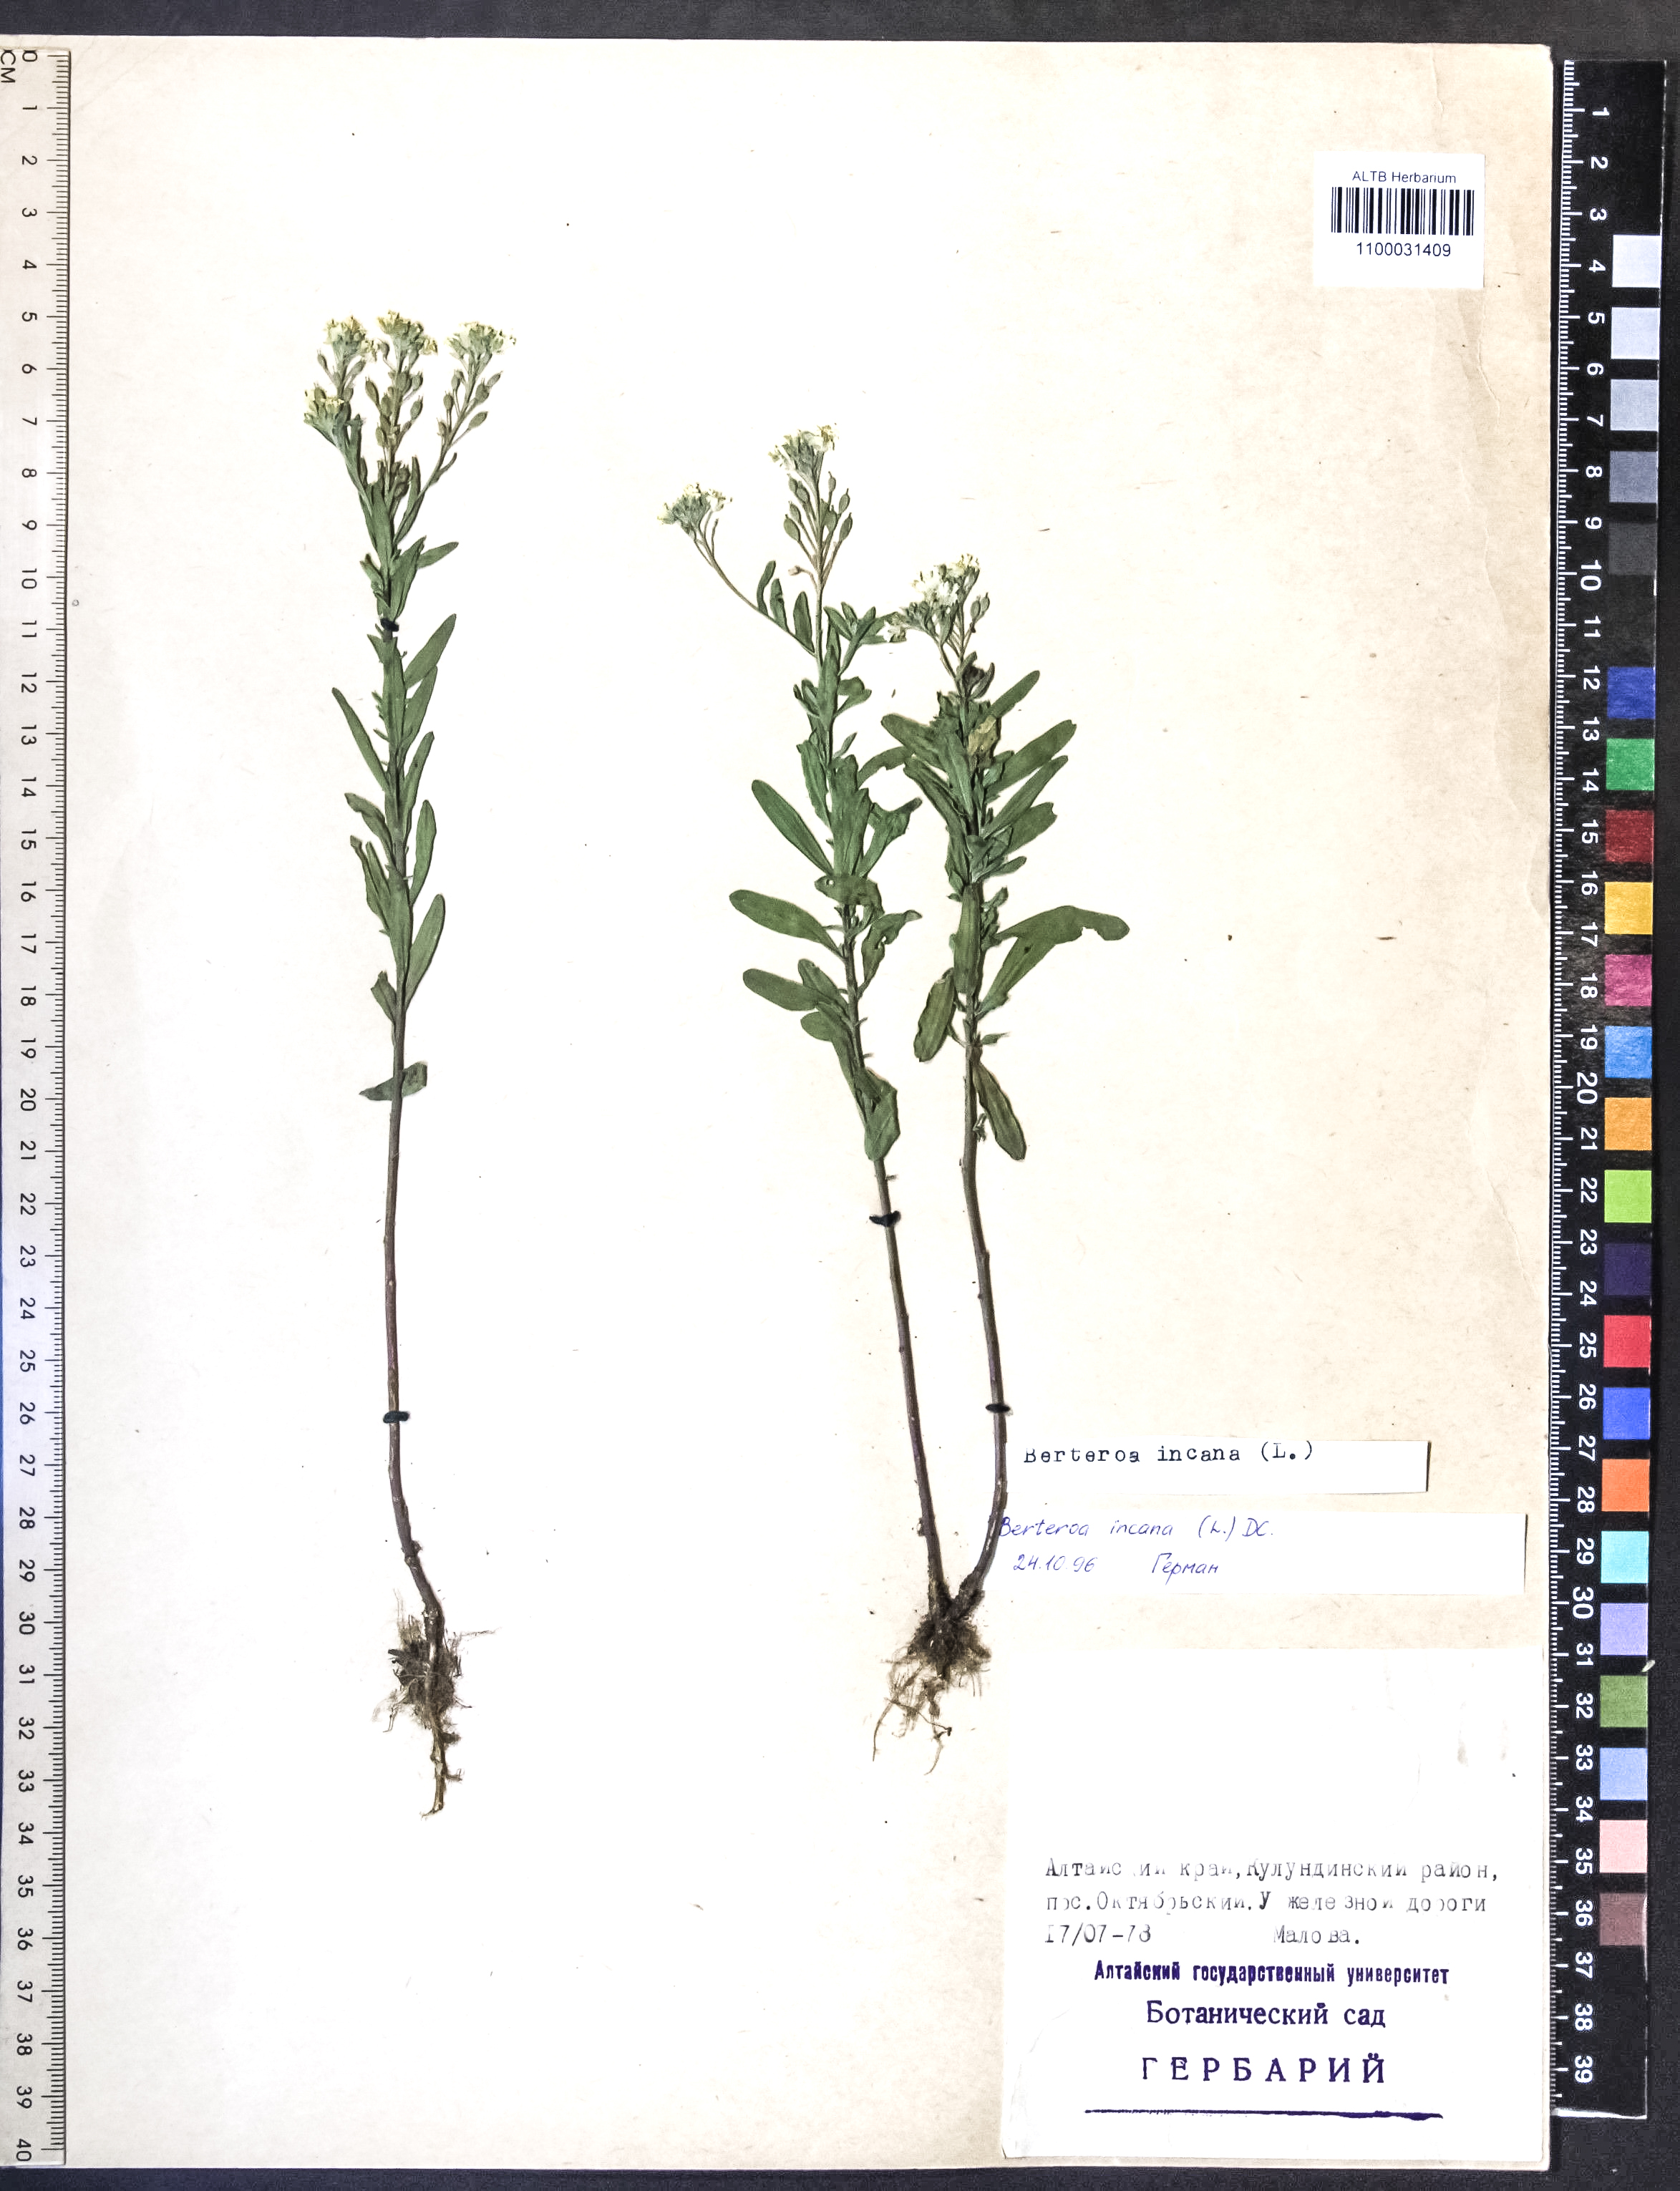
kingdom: Plantae
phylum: Tracheophyta
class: Magnoliopsida
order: Brassicales
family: Brassicaceae
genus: Berteroa
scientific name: Berteroa incana
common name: Hoary alison
